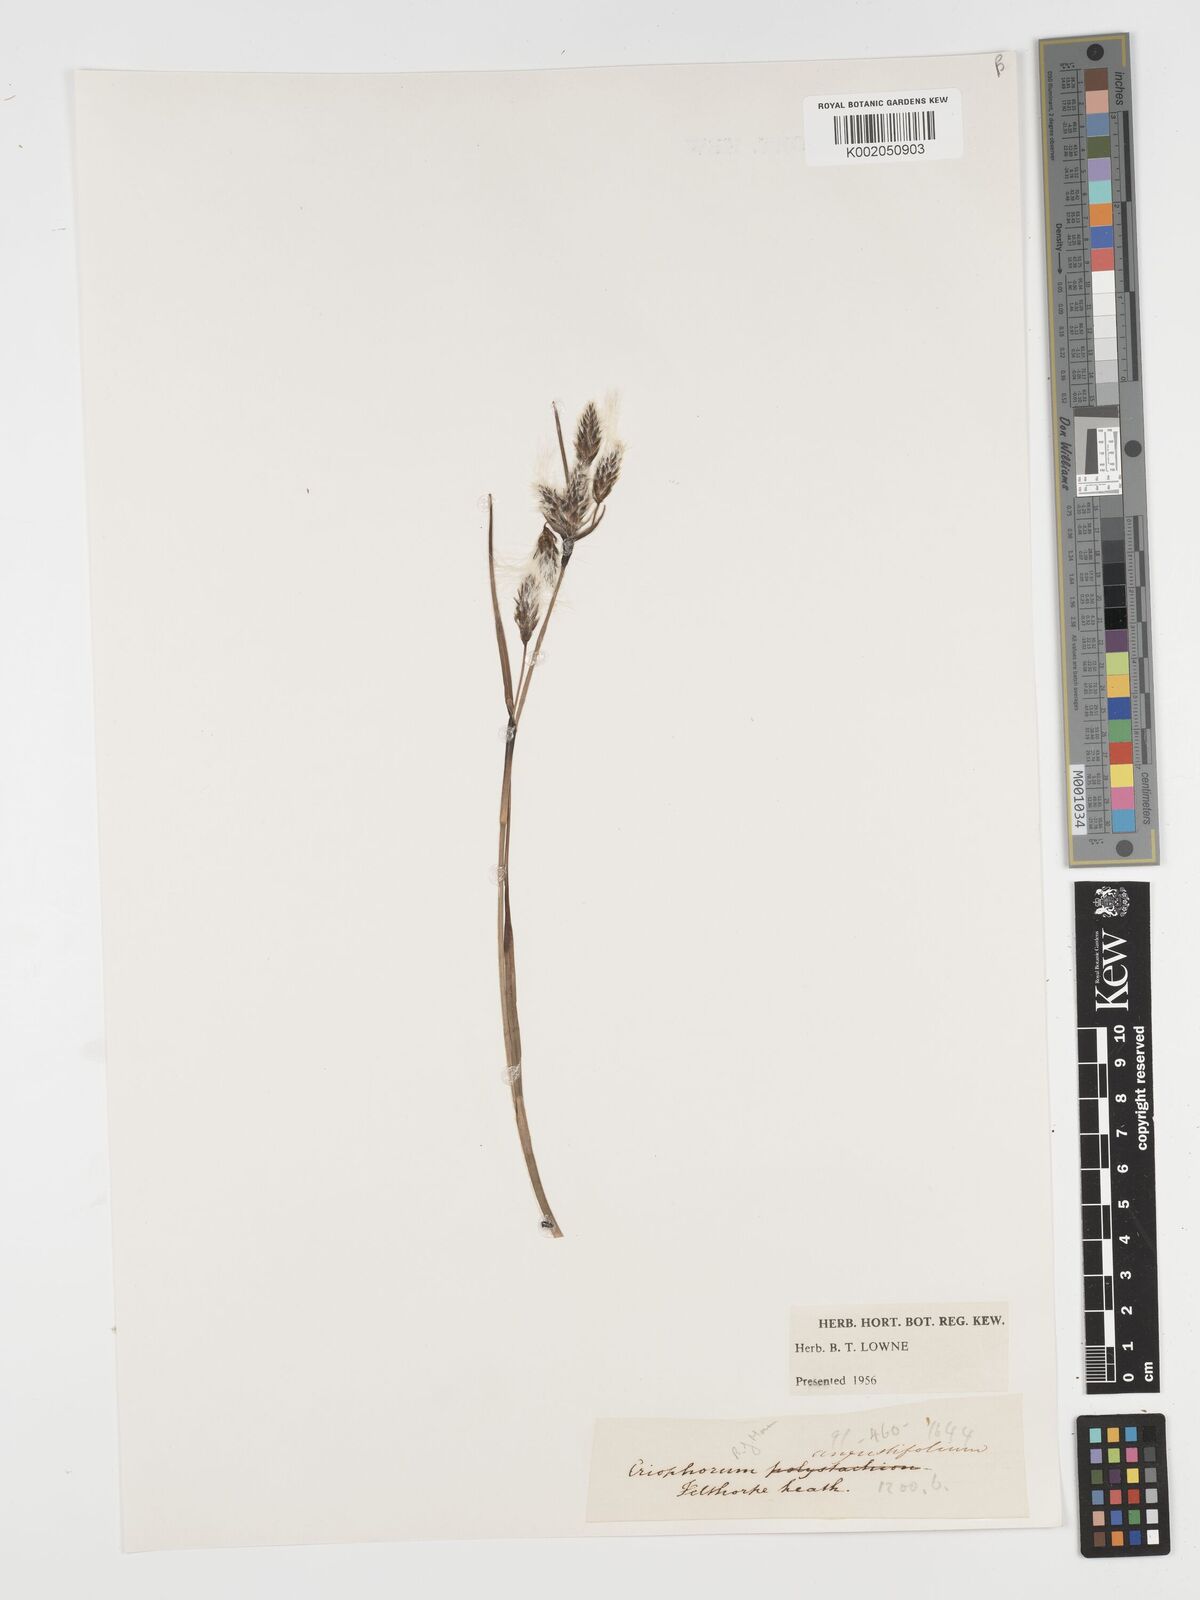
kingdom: Plantae
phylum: Tracheophyta
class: Liliopsida
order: Poales
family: Cyperaceae
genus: Eriophorum
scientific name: Eriophorum angustifolium
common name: Common cottongrass
